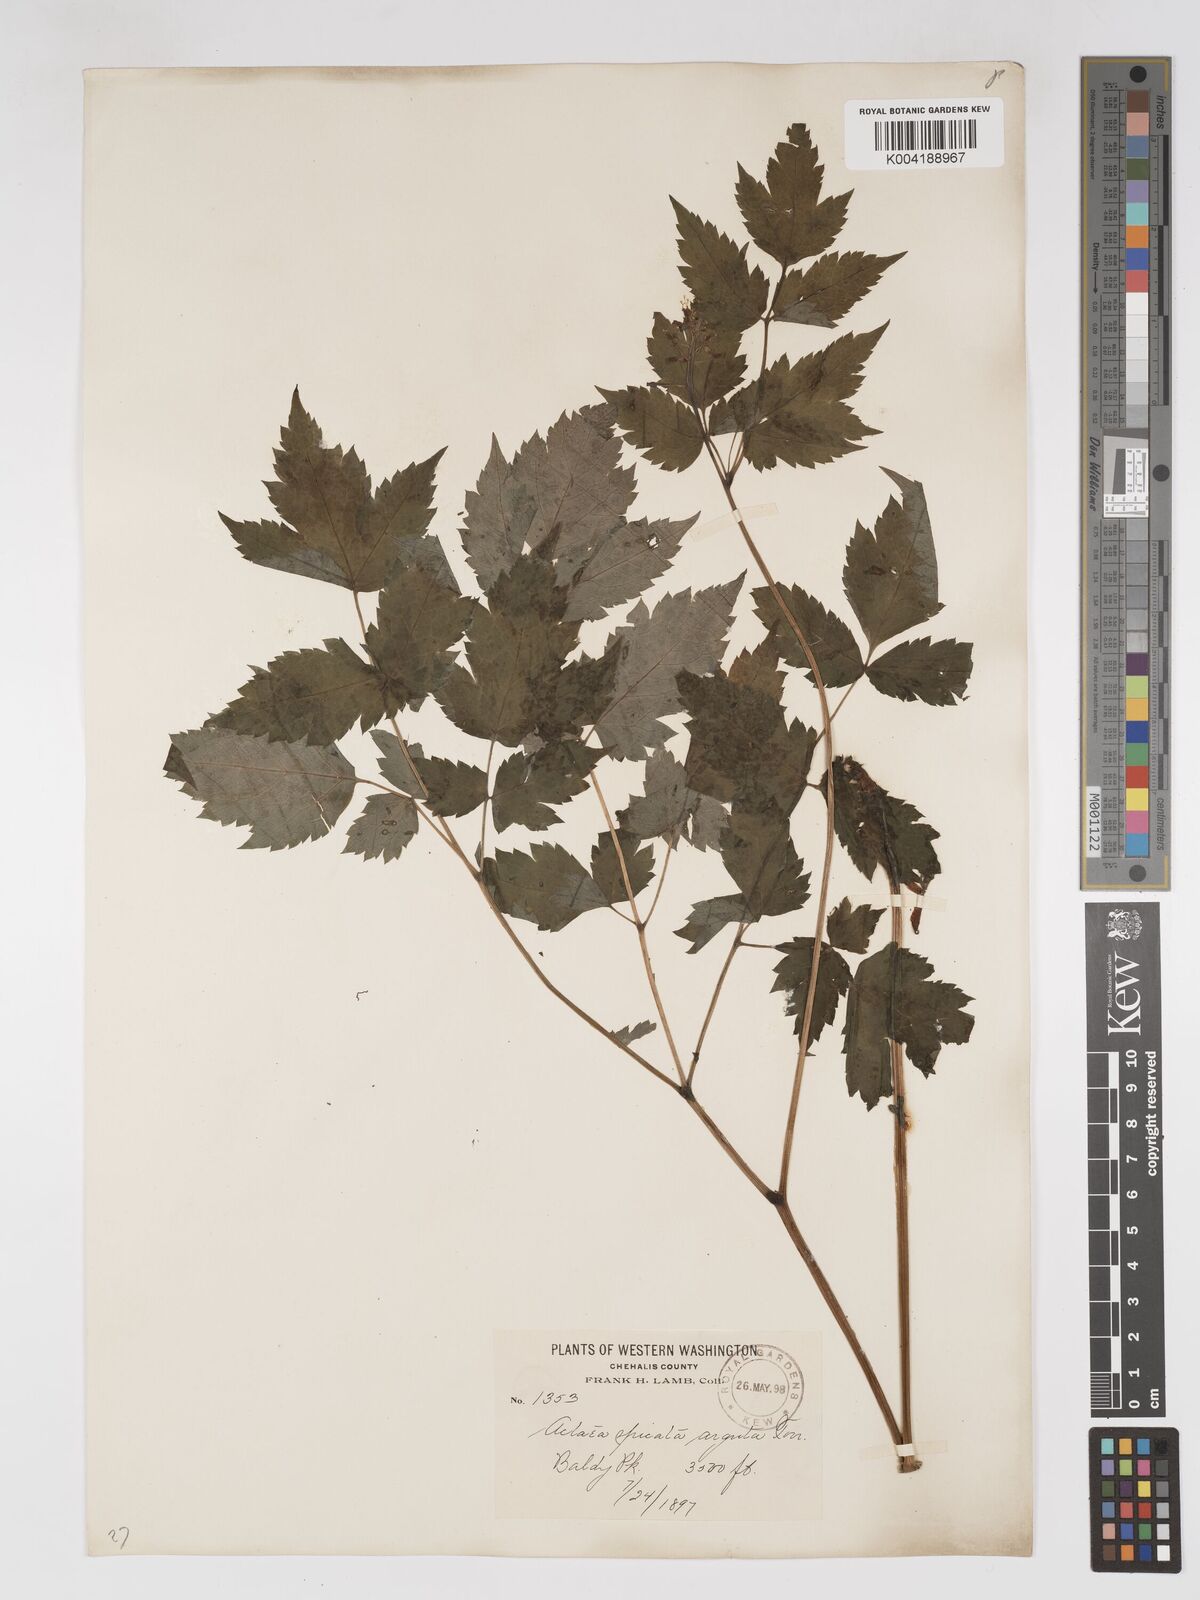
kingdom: Plantae
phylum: Tracheophyta
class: Magnoliopsida
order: Ranunculales
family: Ranunculaceae
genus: Actaea
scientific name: Actaea rubra
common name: Red baneberry
